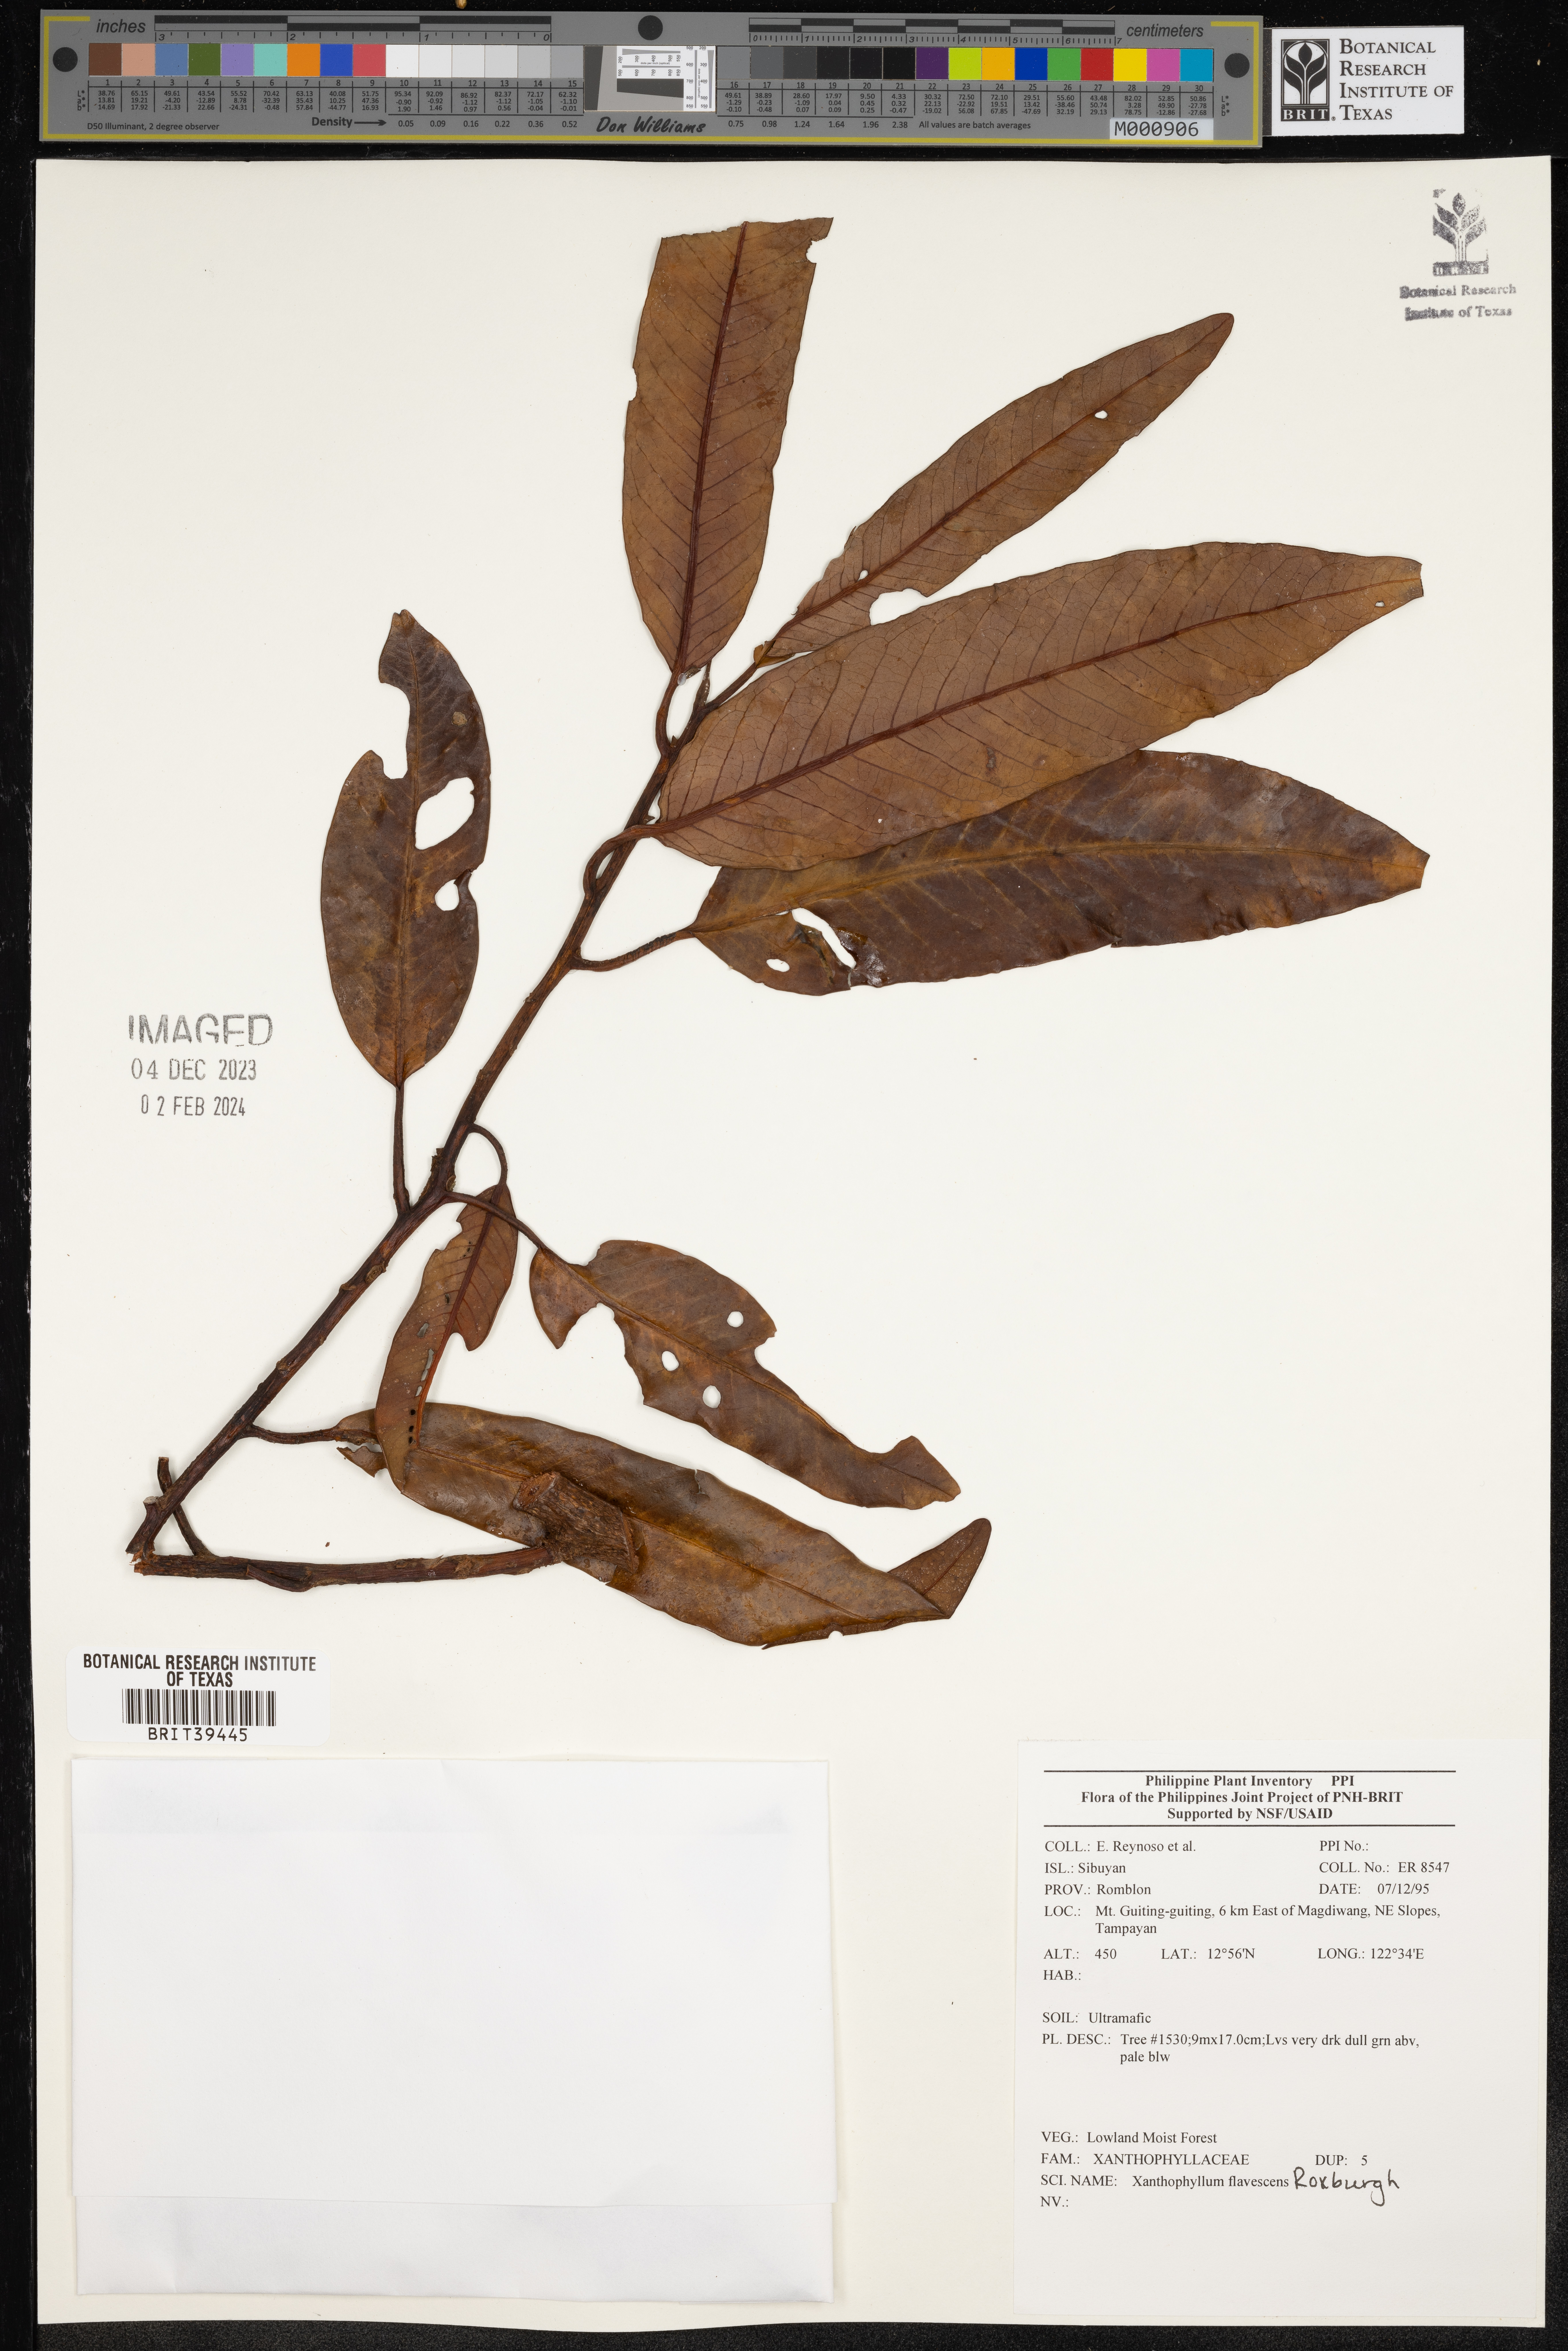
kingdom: Plantae
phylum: Tracheophyta
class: Magnoliopsida
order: Fabales
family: Polygalaceae
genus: Xanthophyllum
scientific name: Xanthophyllum flavescens
